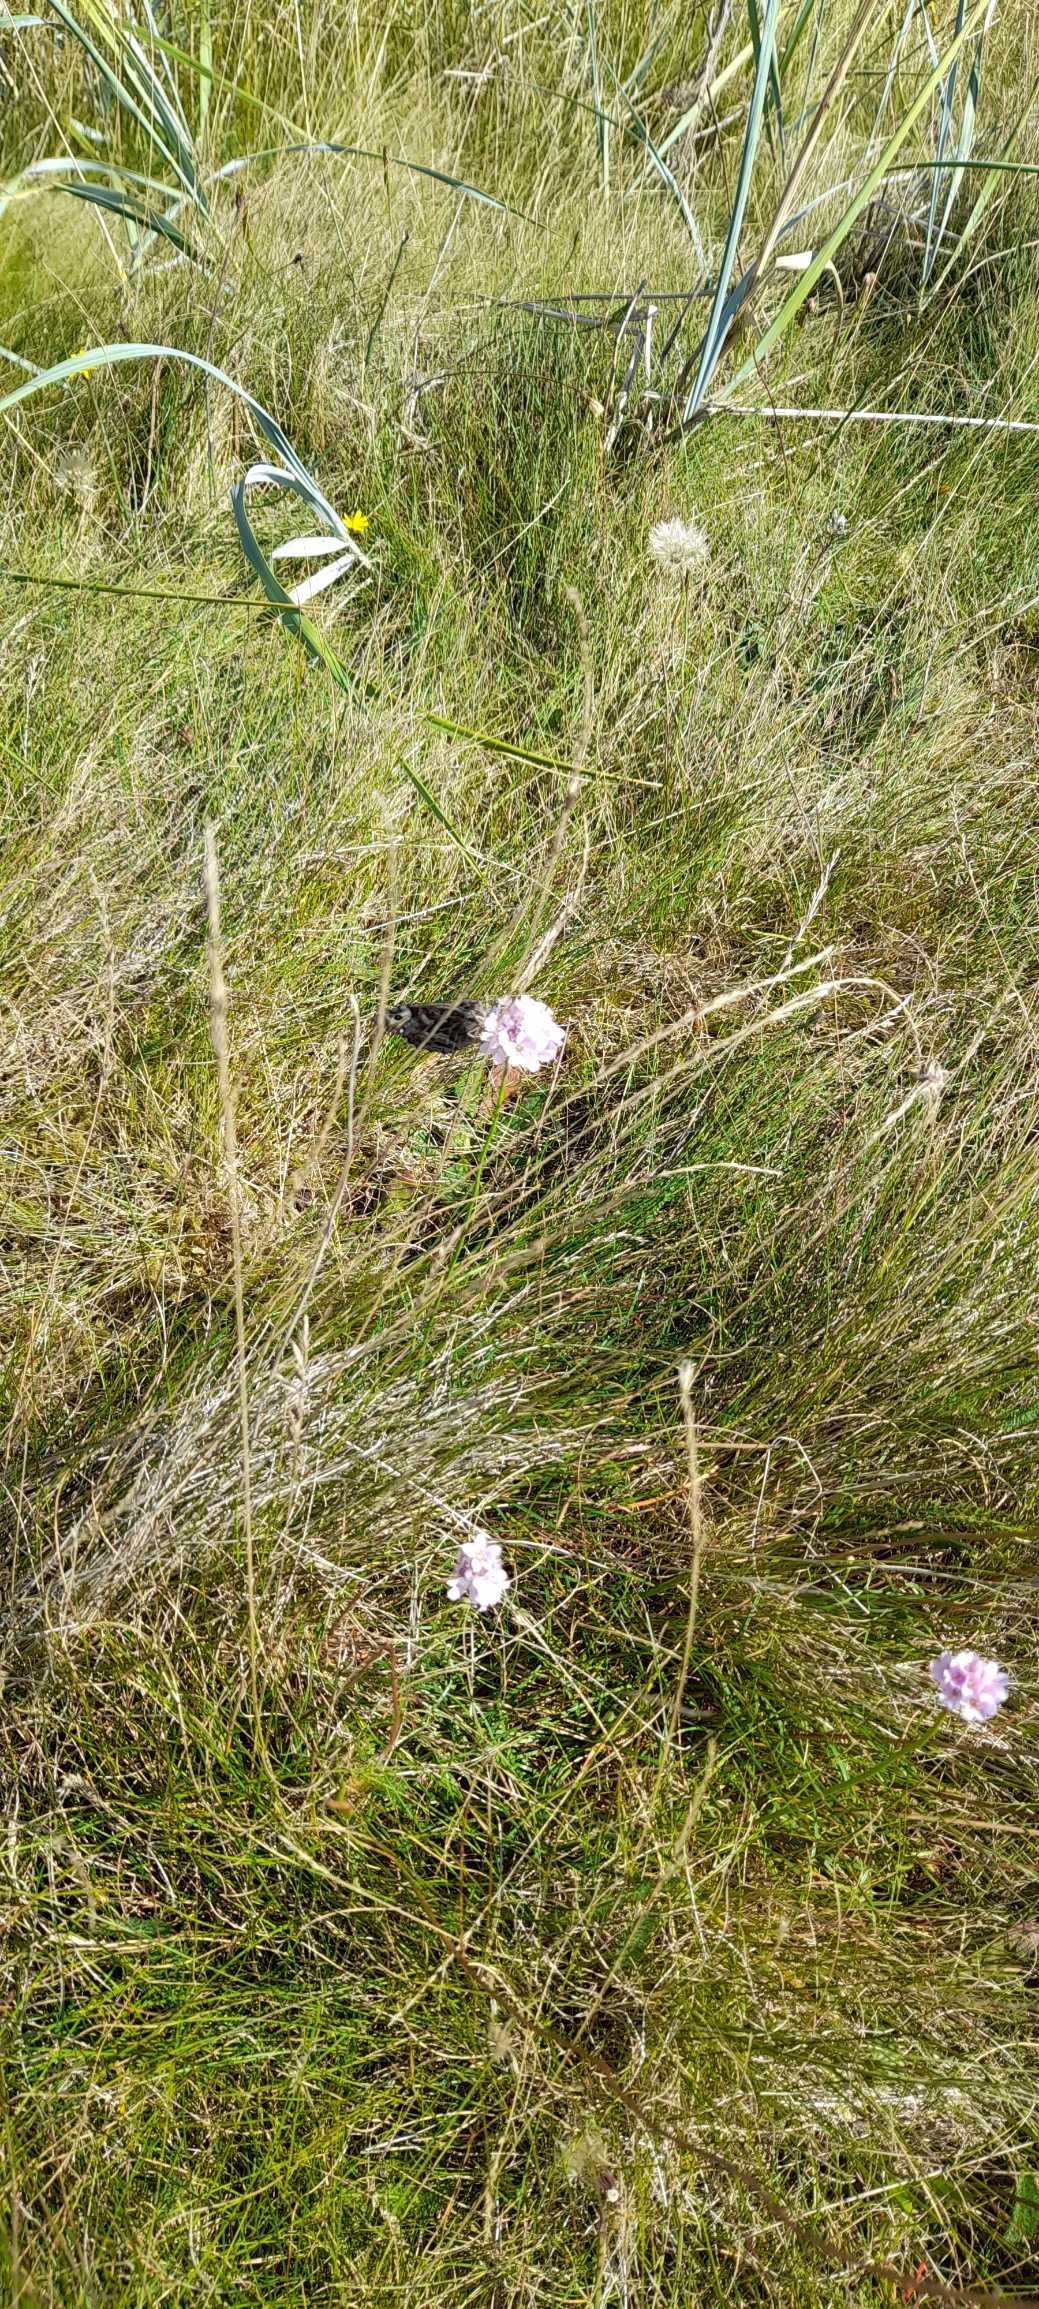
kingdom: Animalia
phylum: Arthropoda
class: Insecta
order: Lepidoptera
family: Nymphalidae
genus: Hipparchia
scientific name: Hipparchia semele
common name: Sandrandøje
